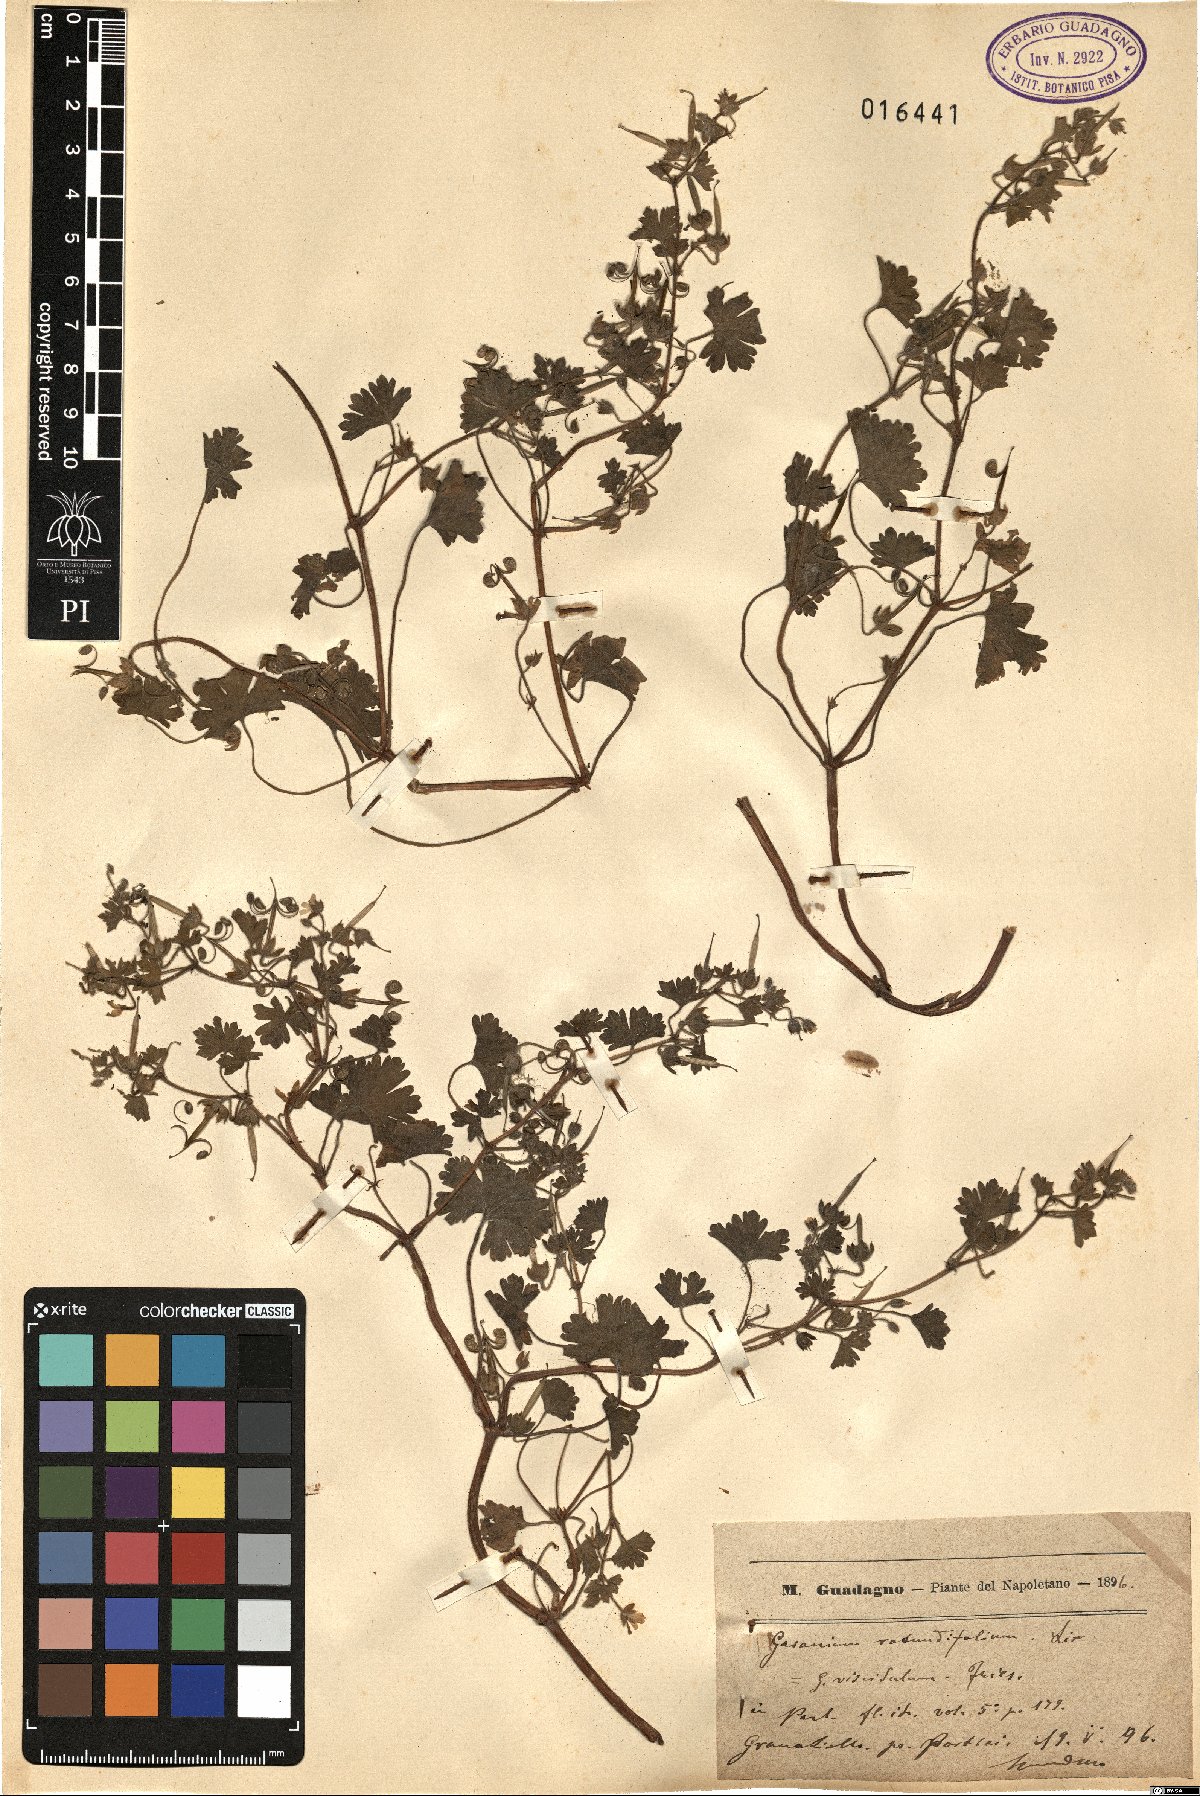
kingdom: Plantae
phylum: Tracheophyta
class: Magnoliopsida
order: Geraniales
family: Geraniaceae
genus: Geranium
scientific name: Geranium rotundifolium
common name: Round-leaved crane's-bill
